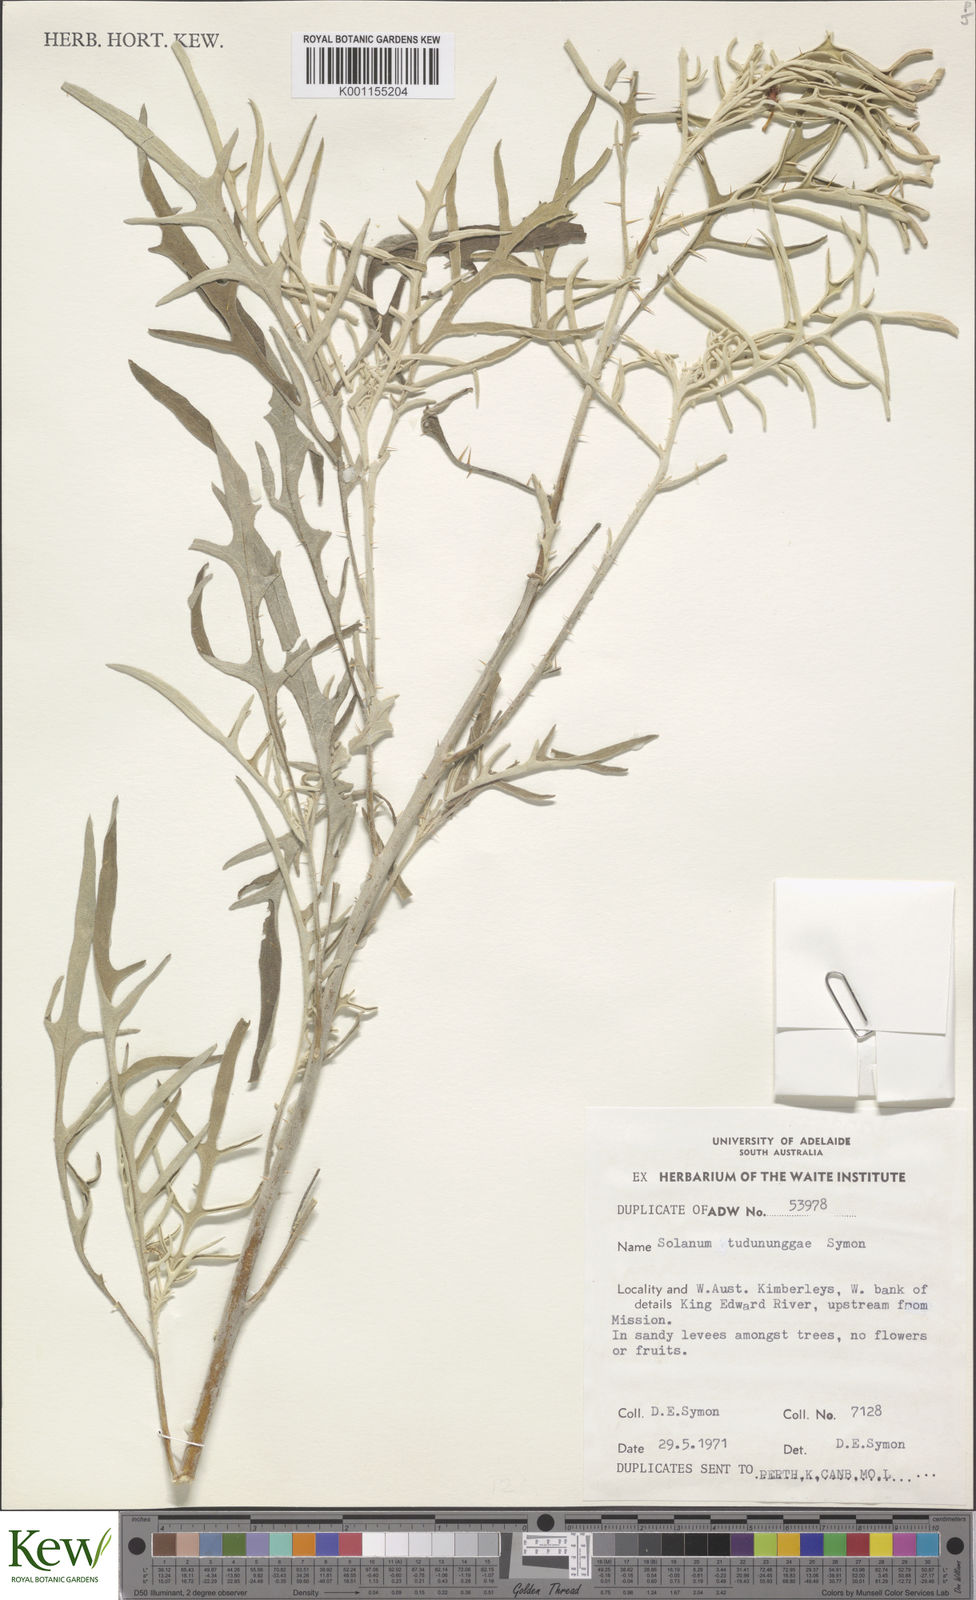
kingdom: Plantae
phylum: Tracheophyta
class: Magnoliopsida
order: Solanales
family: Solanaceae
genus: Solanum
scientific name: Solanum tudununggae
